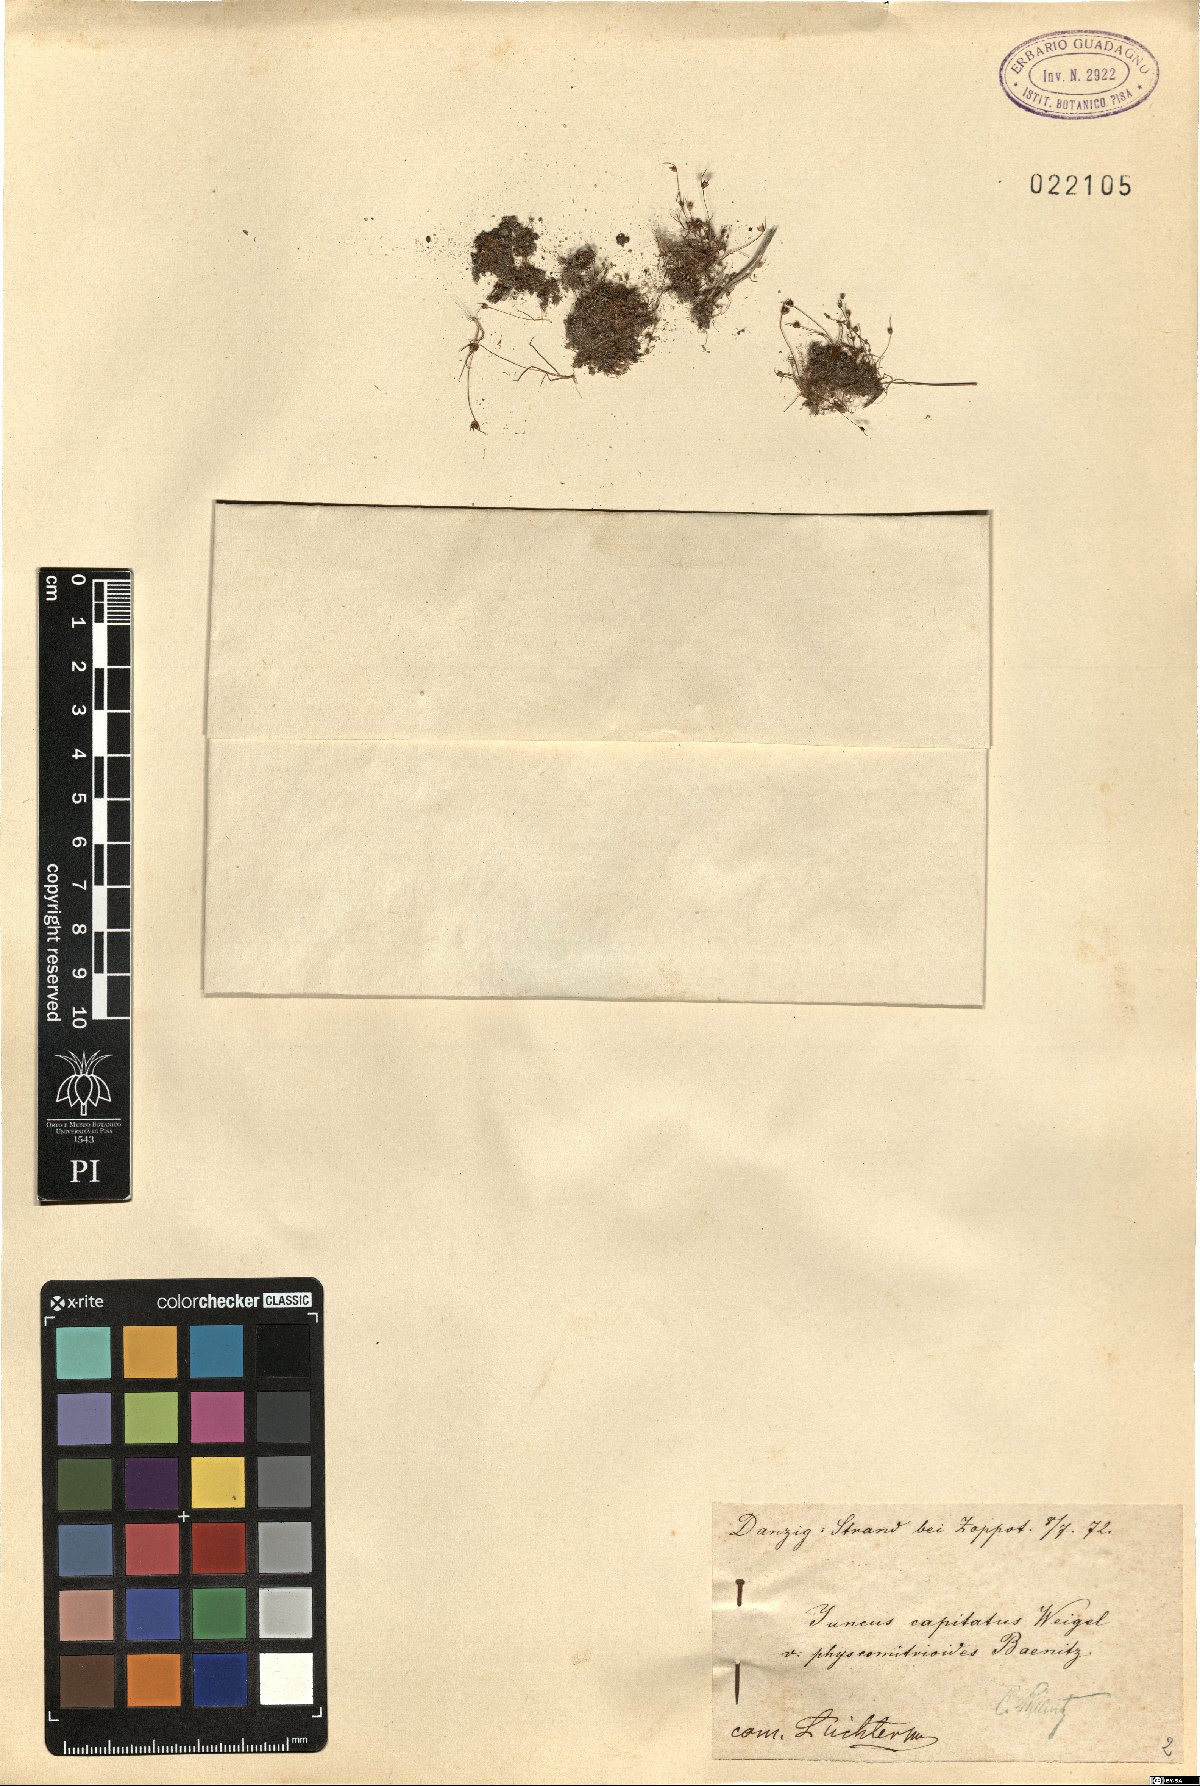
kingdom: Plantae
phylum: Tracheophyta
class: Liliopsida
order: Poales
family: Juncaceae
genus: Juncus
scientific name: Juncus capitatus
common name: Dwarf rush
